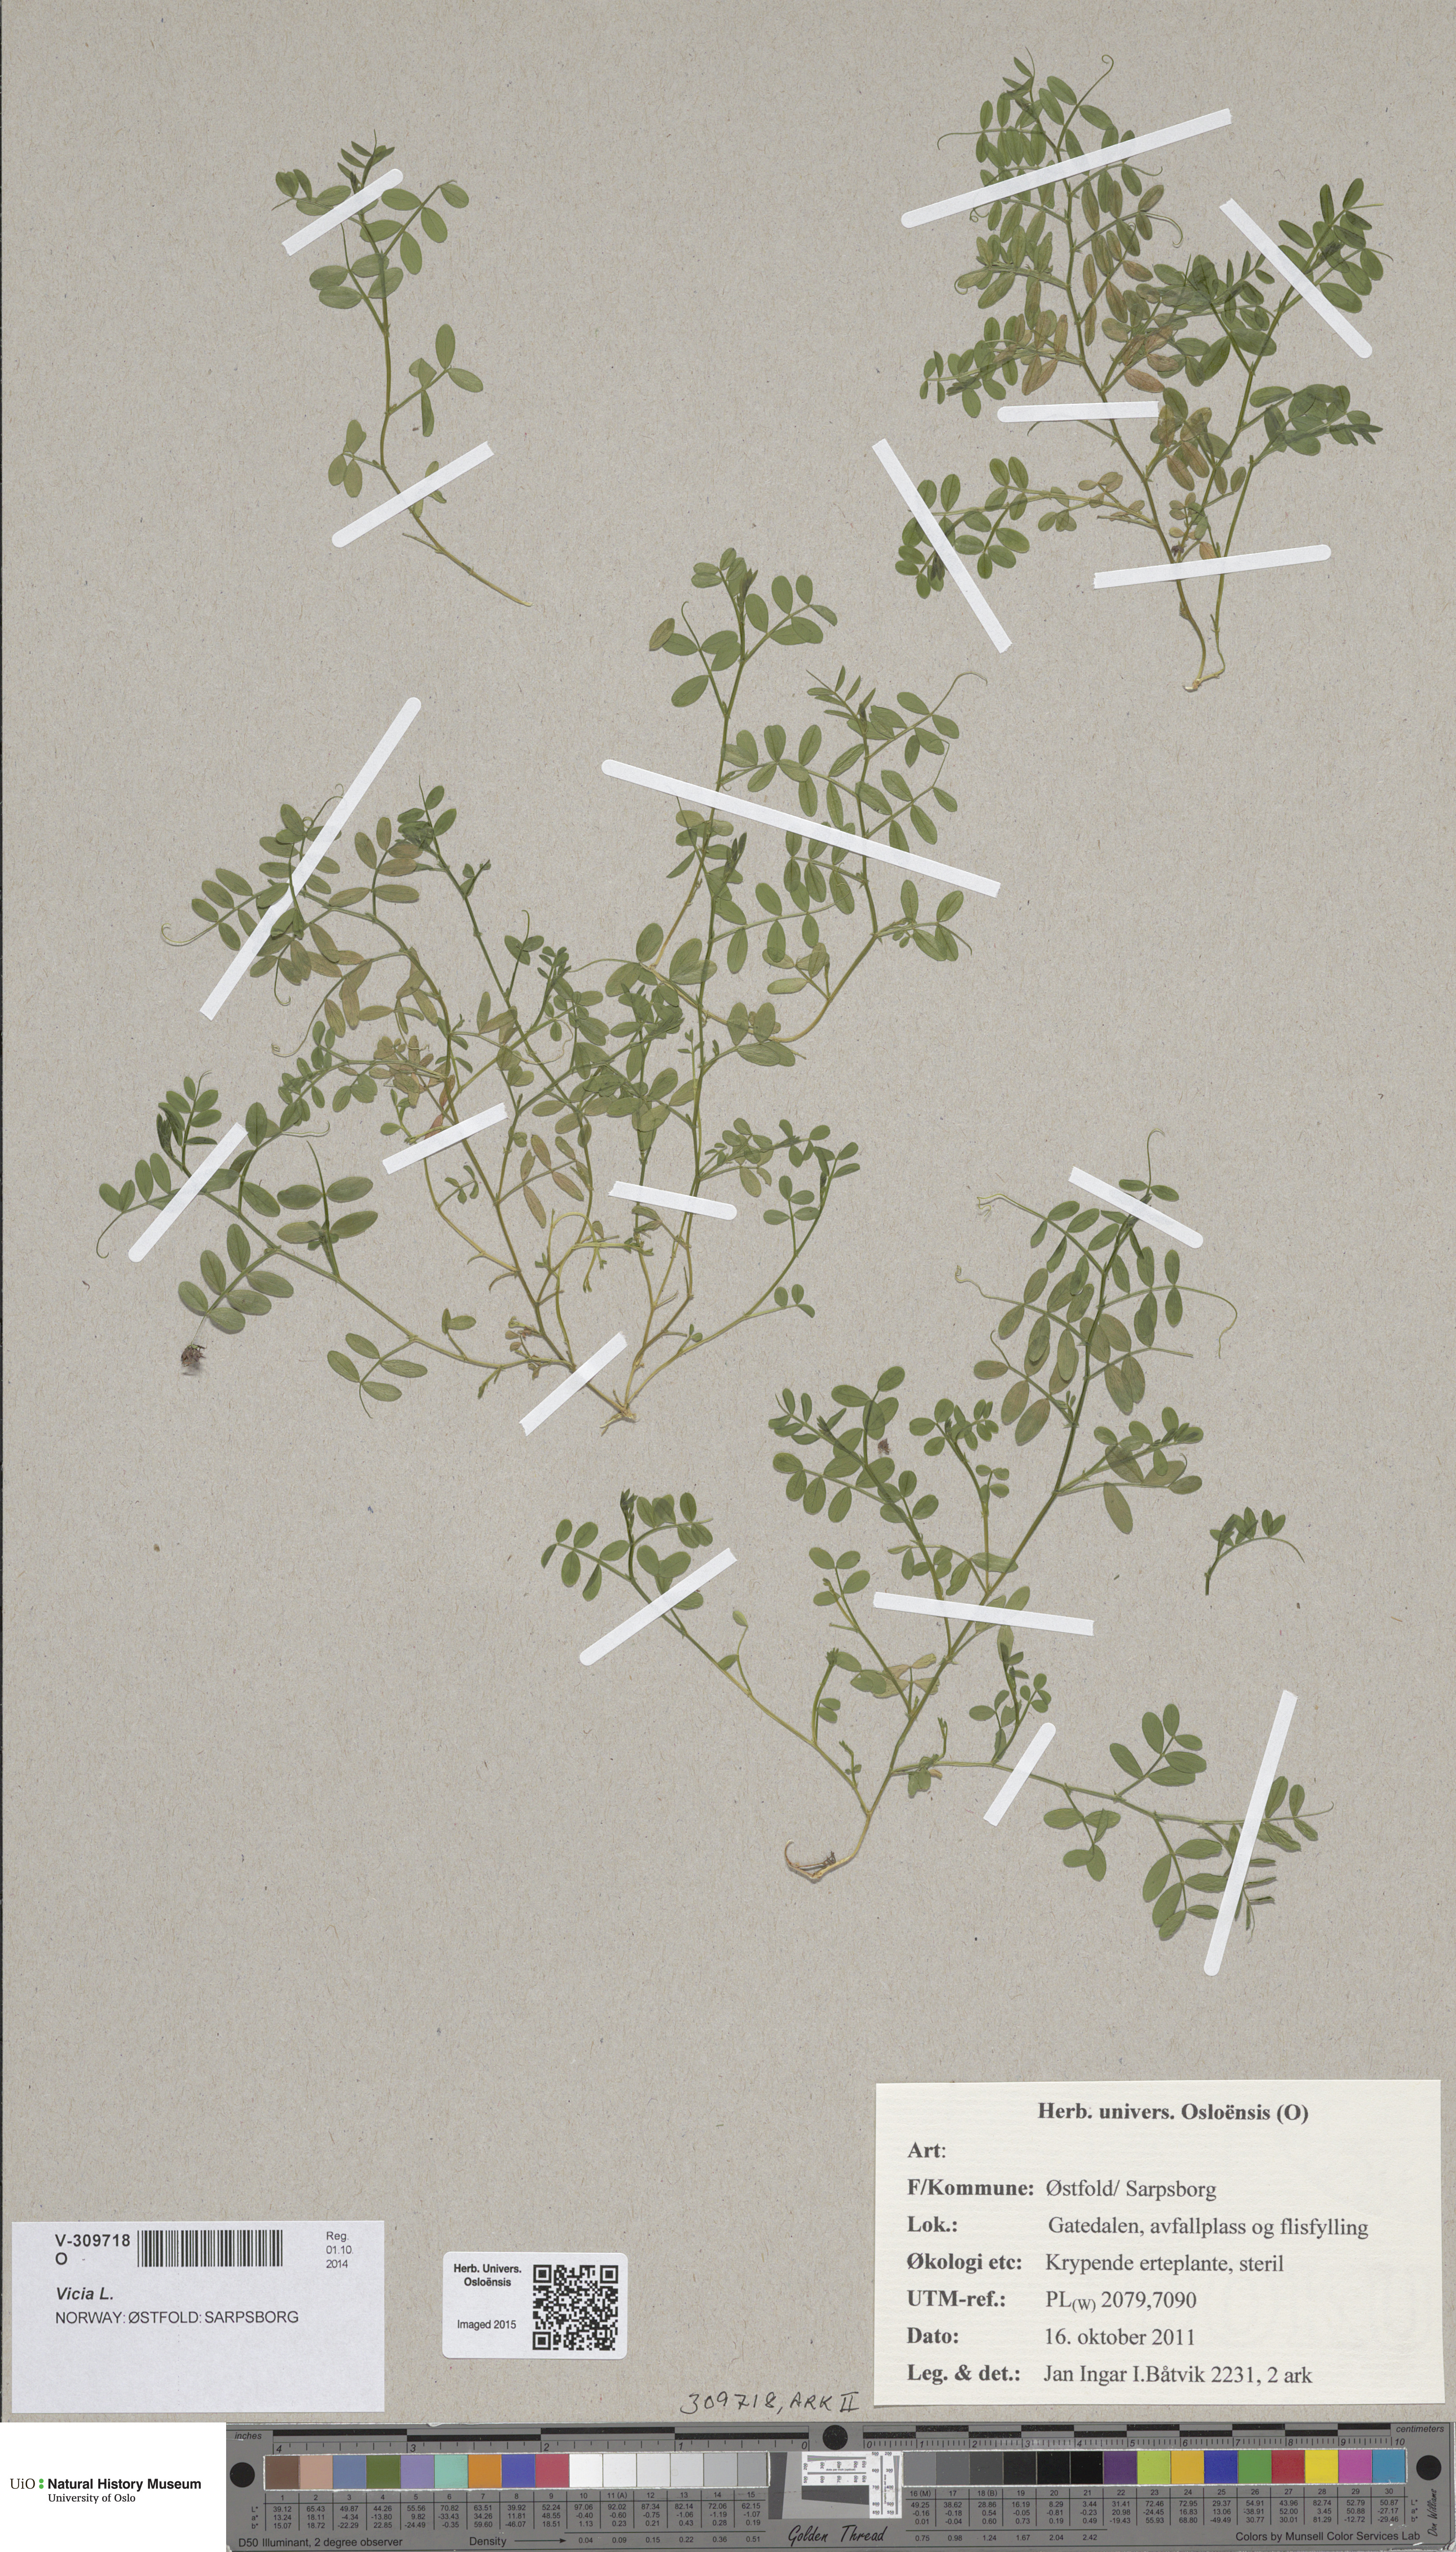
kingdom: Plantae
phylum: Tracheophyta
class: Magnoliopsida
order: Fabales
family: Fabaceae
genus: Vicia
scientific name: Vicia
